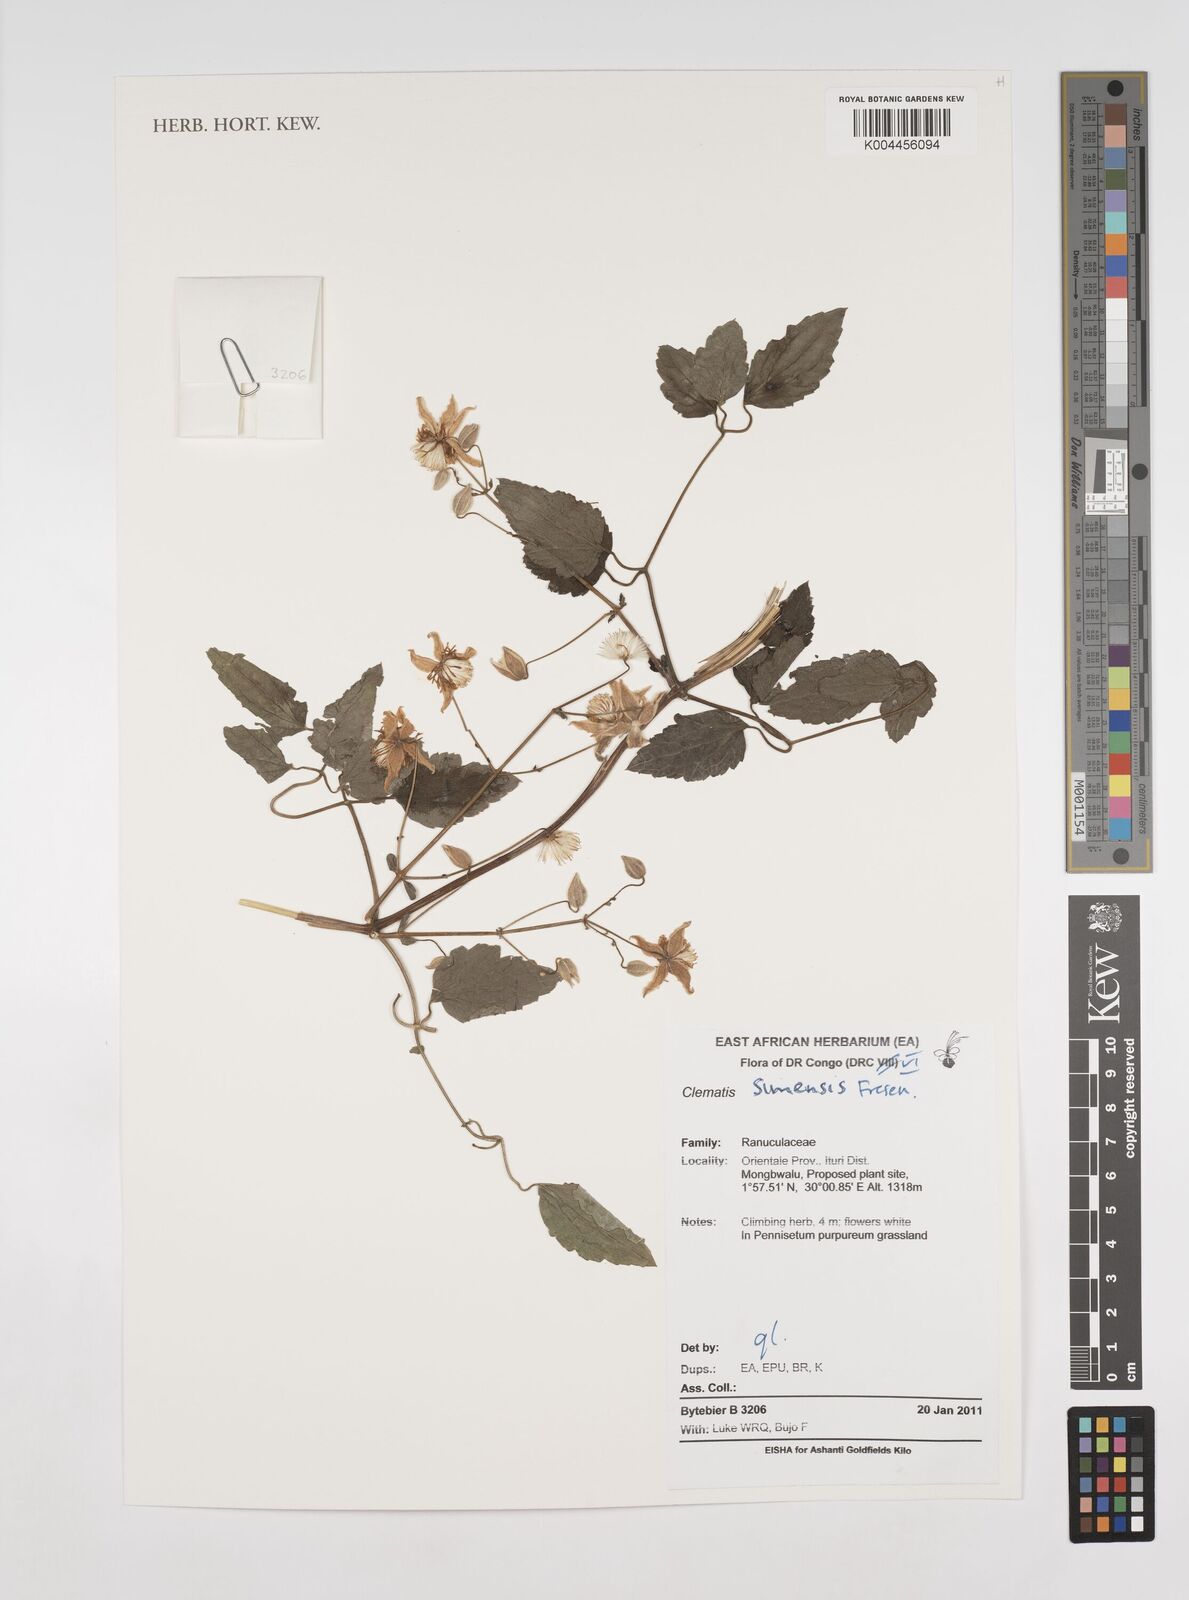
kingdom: Plantae
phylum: Tracheophyta
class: Magnoliopsida
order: Ranunculales
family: Ranunculaceae
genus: Clematis
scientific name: Clematis simensis
